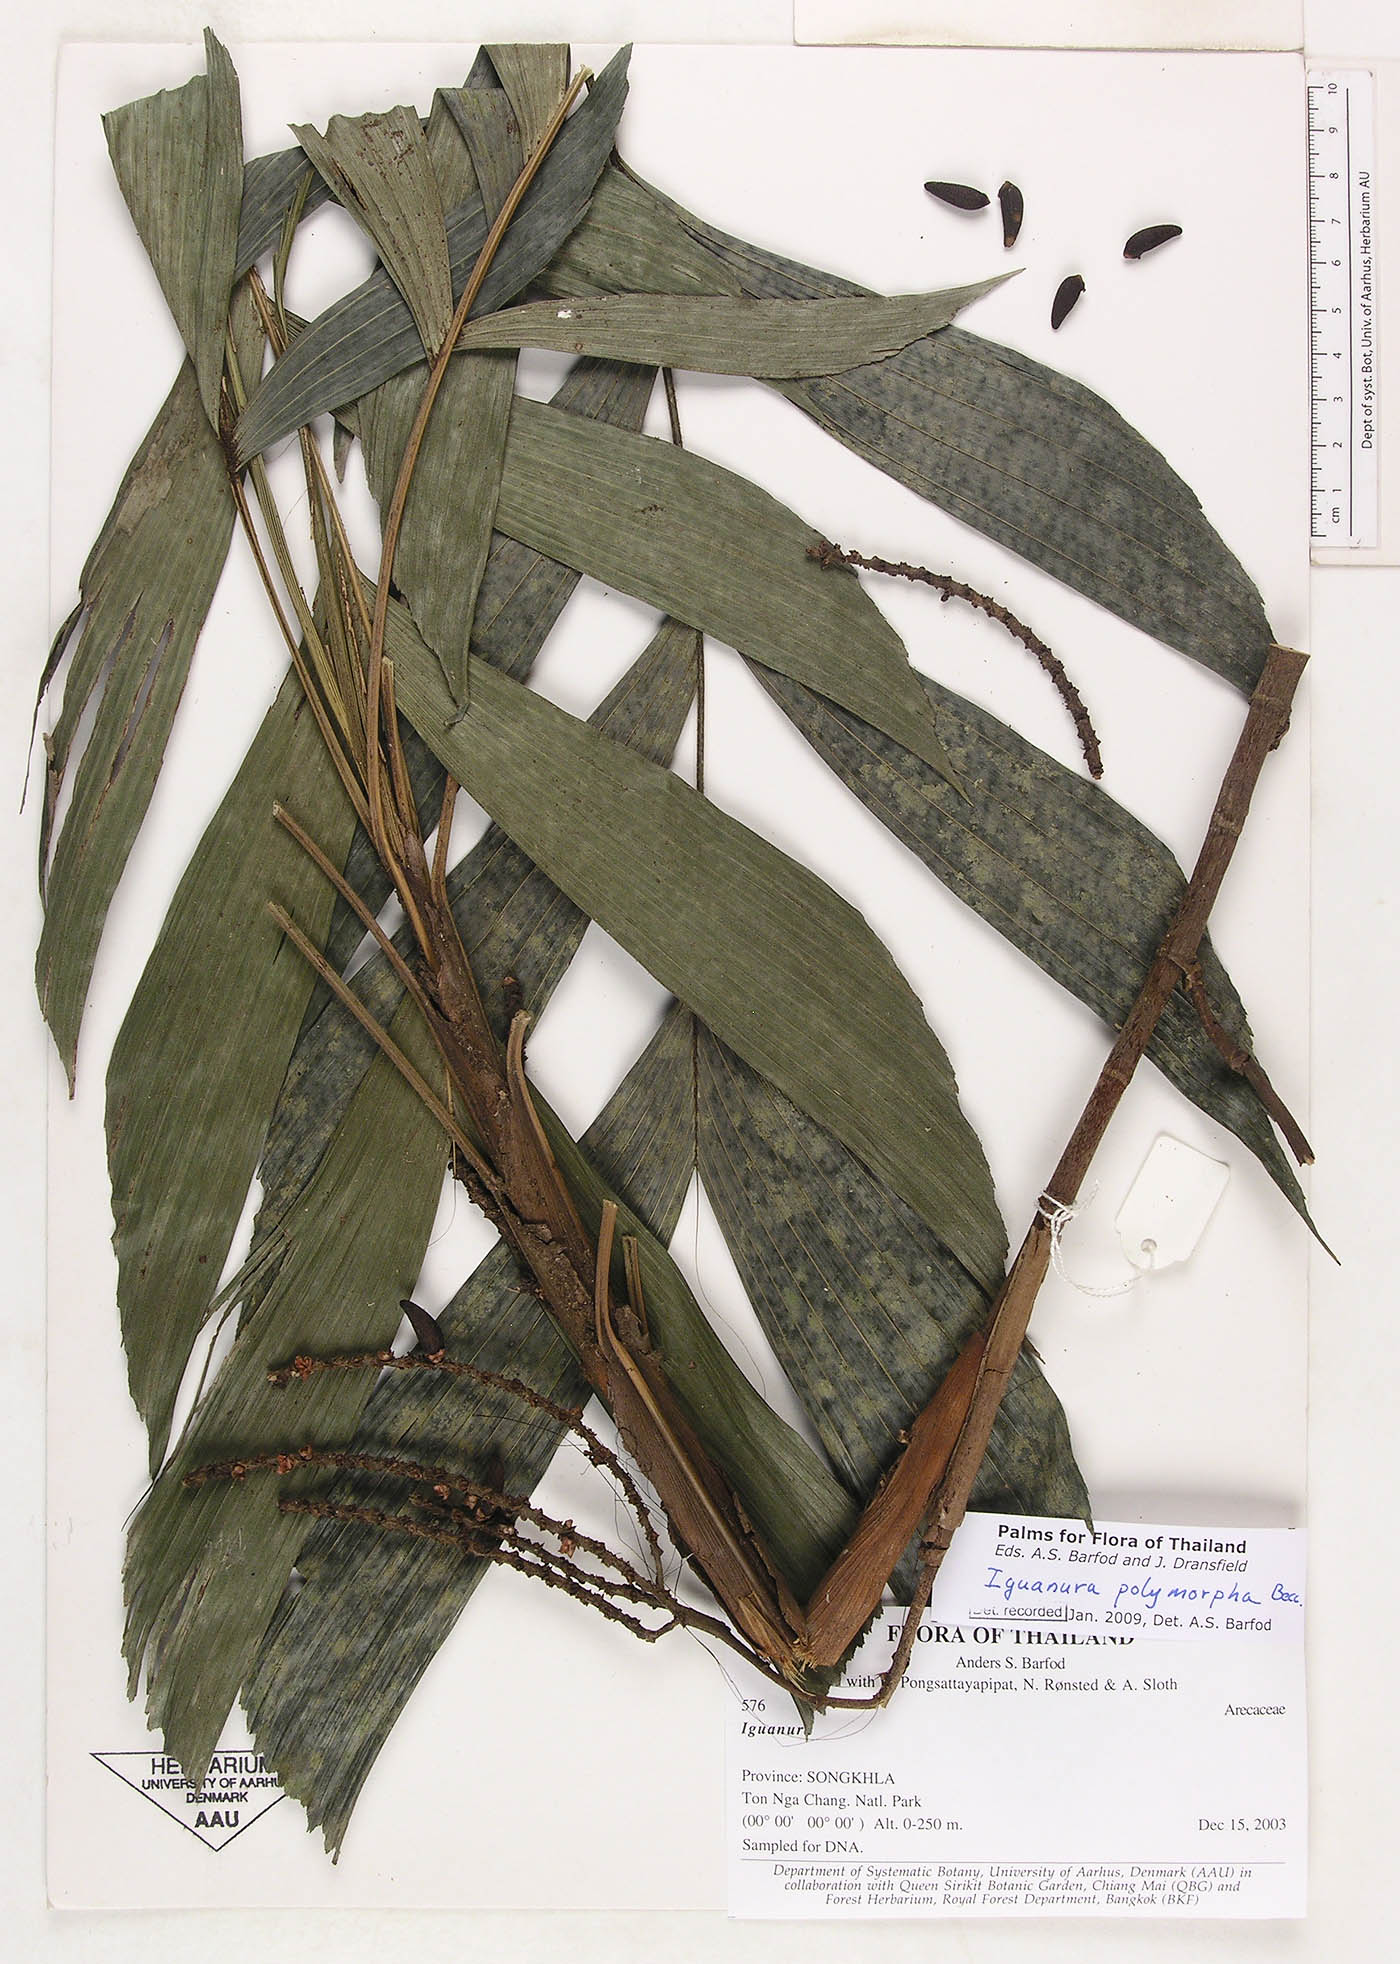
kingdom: Plantae
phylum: Tracheophyta
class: Liliopsida
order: Arecales
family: Arecaceae
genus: Iguanura
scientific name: Iguanura polymorpha
